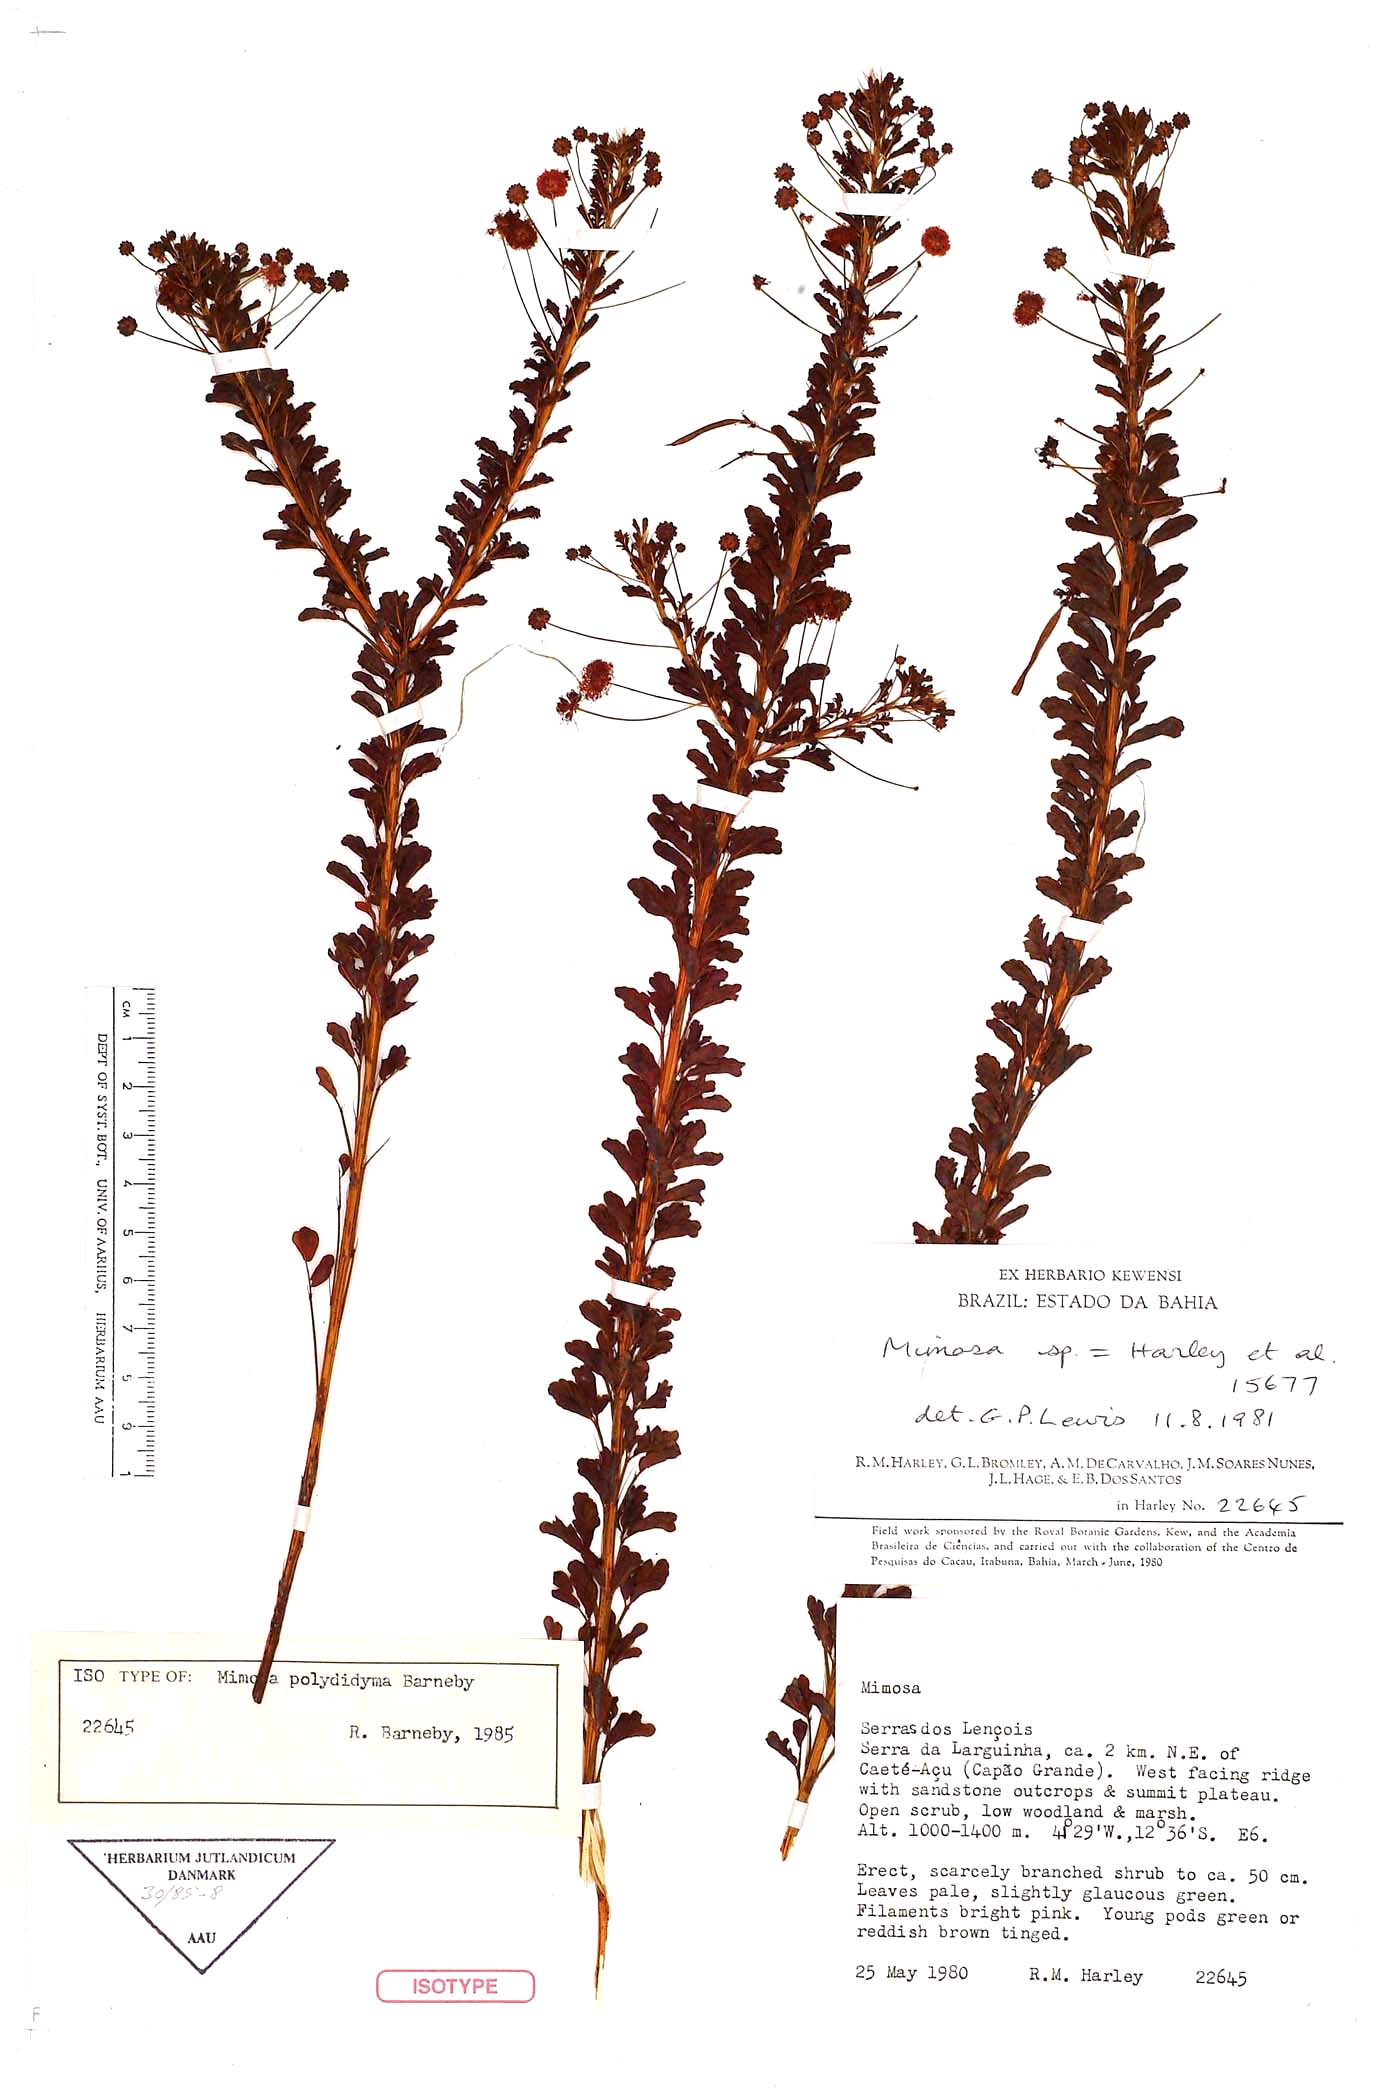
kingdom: Plantae
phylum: Tracheophyta
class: Magnoliopsida
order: Fabales
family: Fabaceae
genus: Mimosa
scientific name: Mimosa polydidyma
